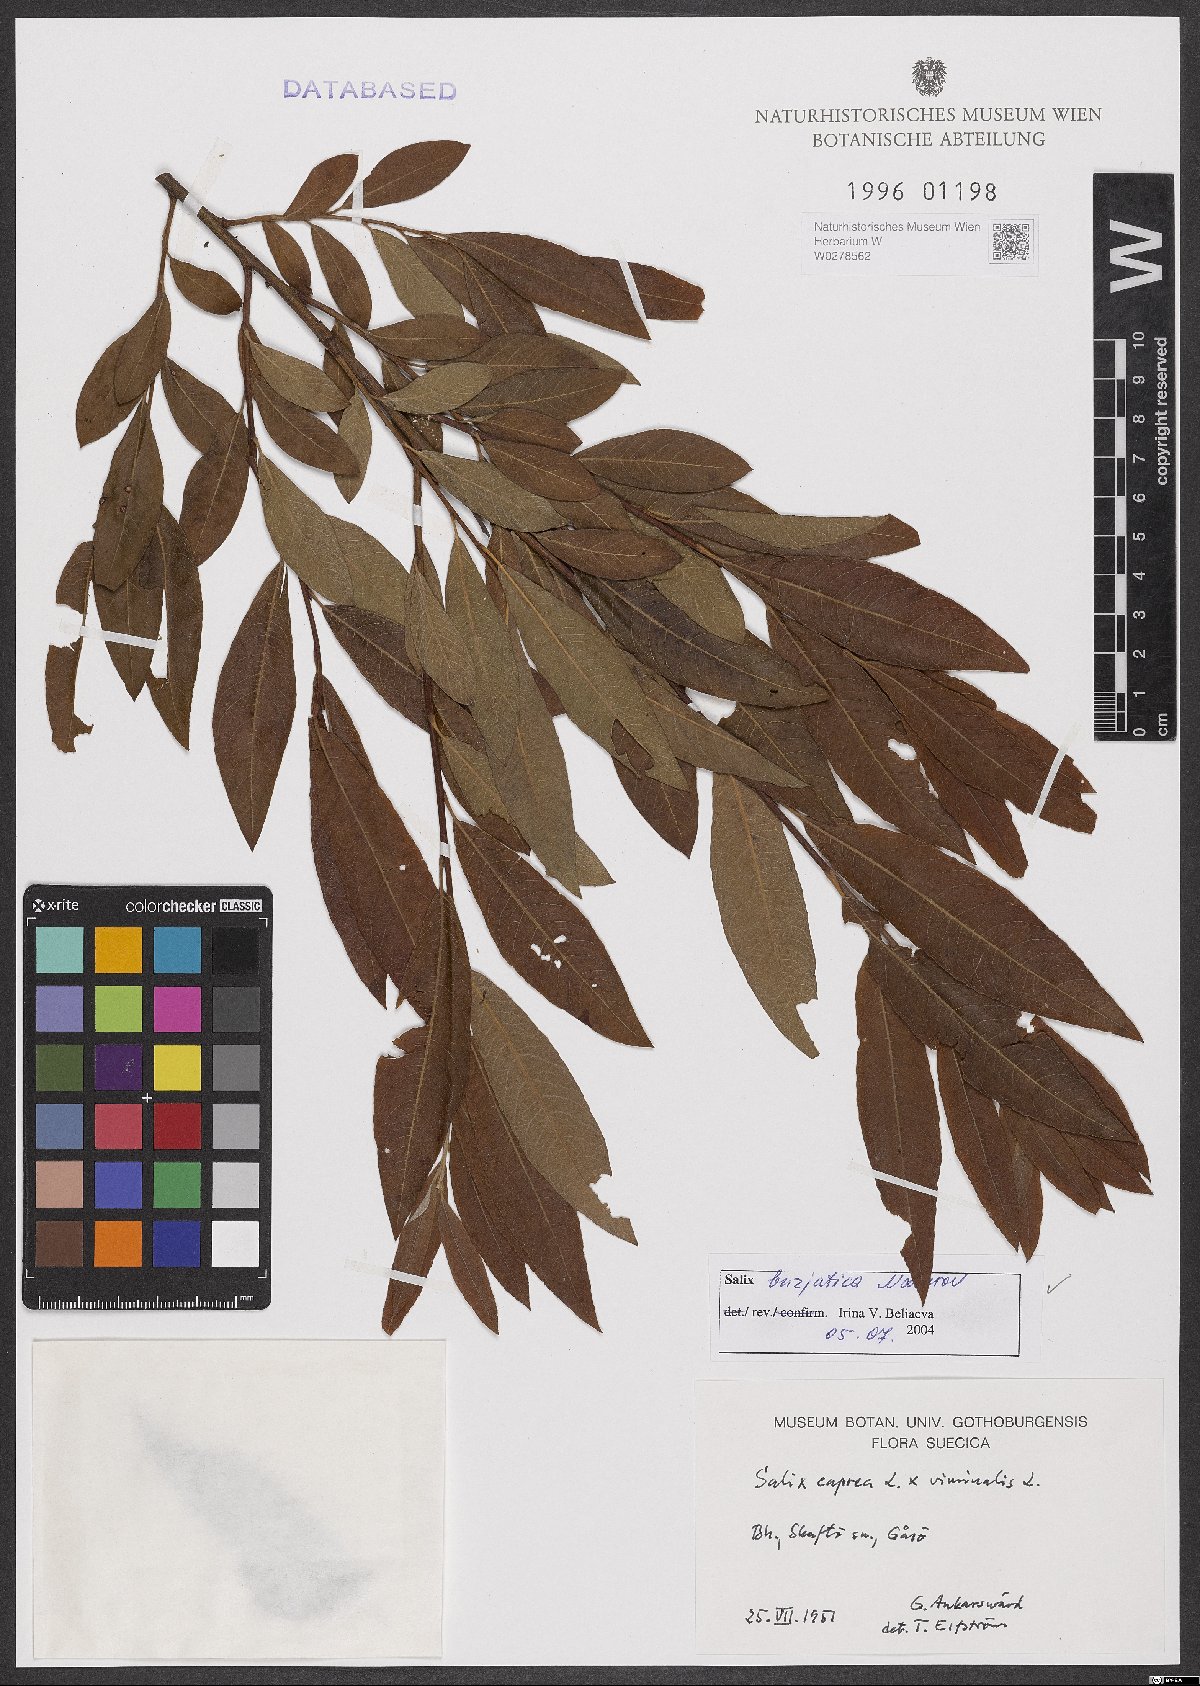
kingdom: Plantae
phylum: Tracheophyta
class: Magnoliopsida
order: Malpighiales
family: Salicaceae
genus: Salix
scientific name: Salix gmelinii
